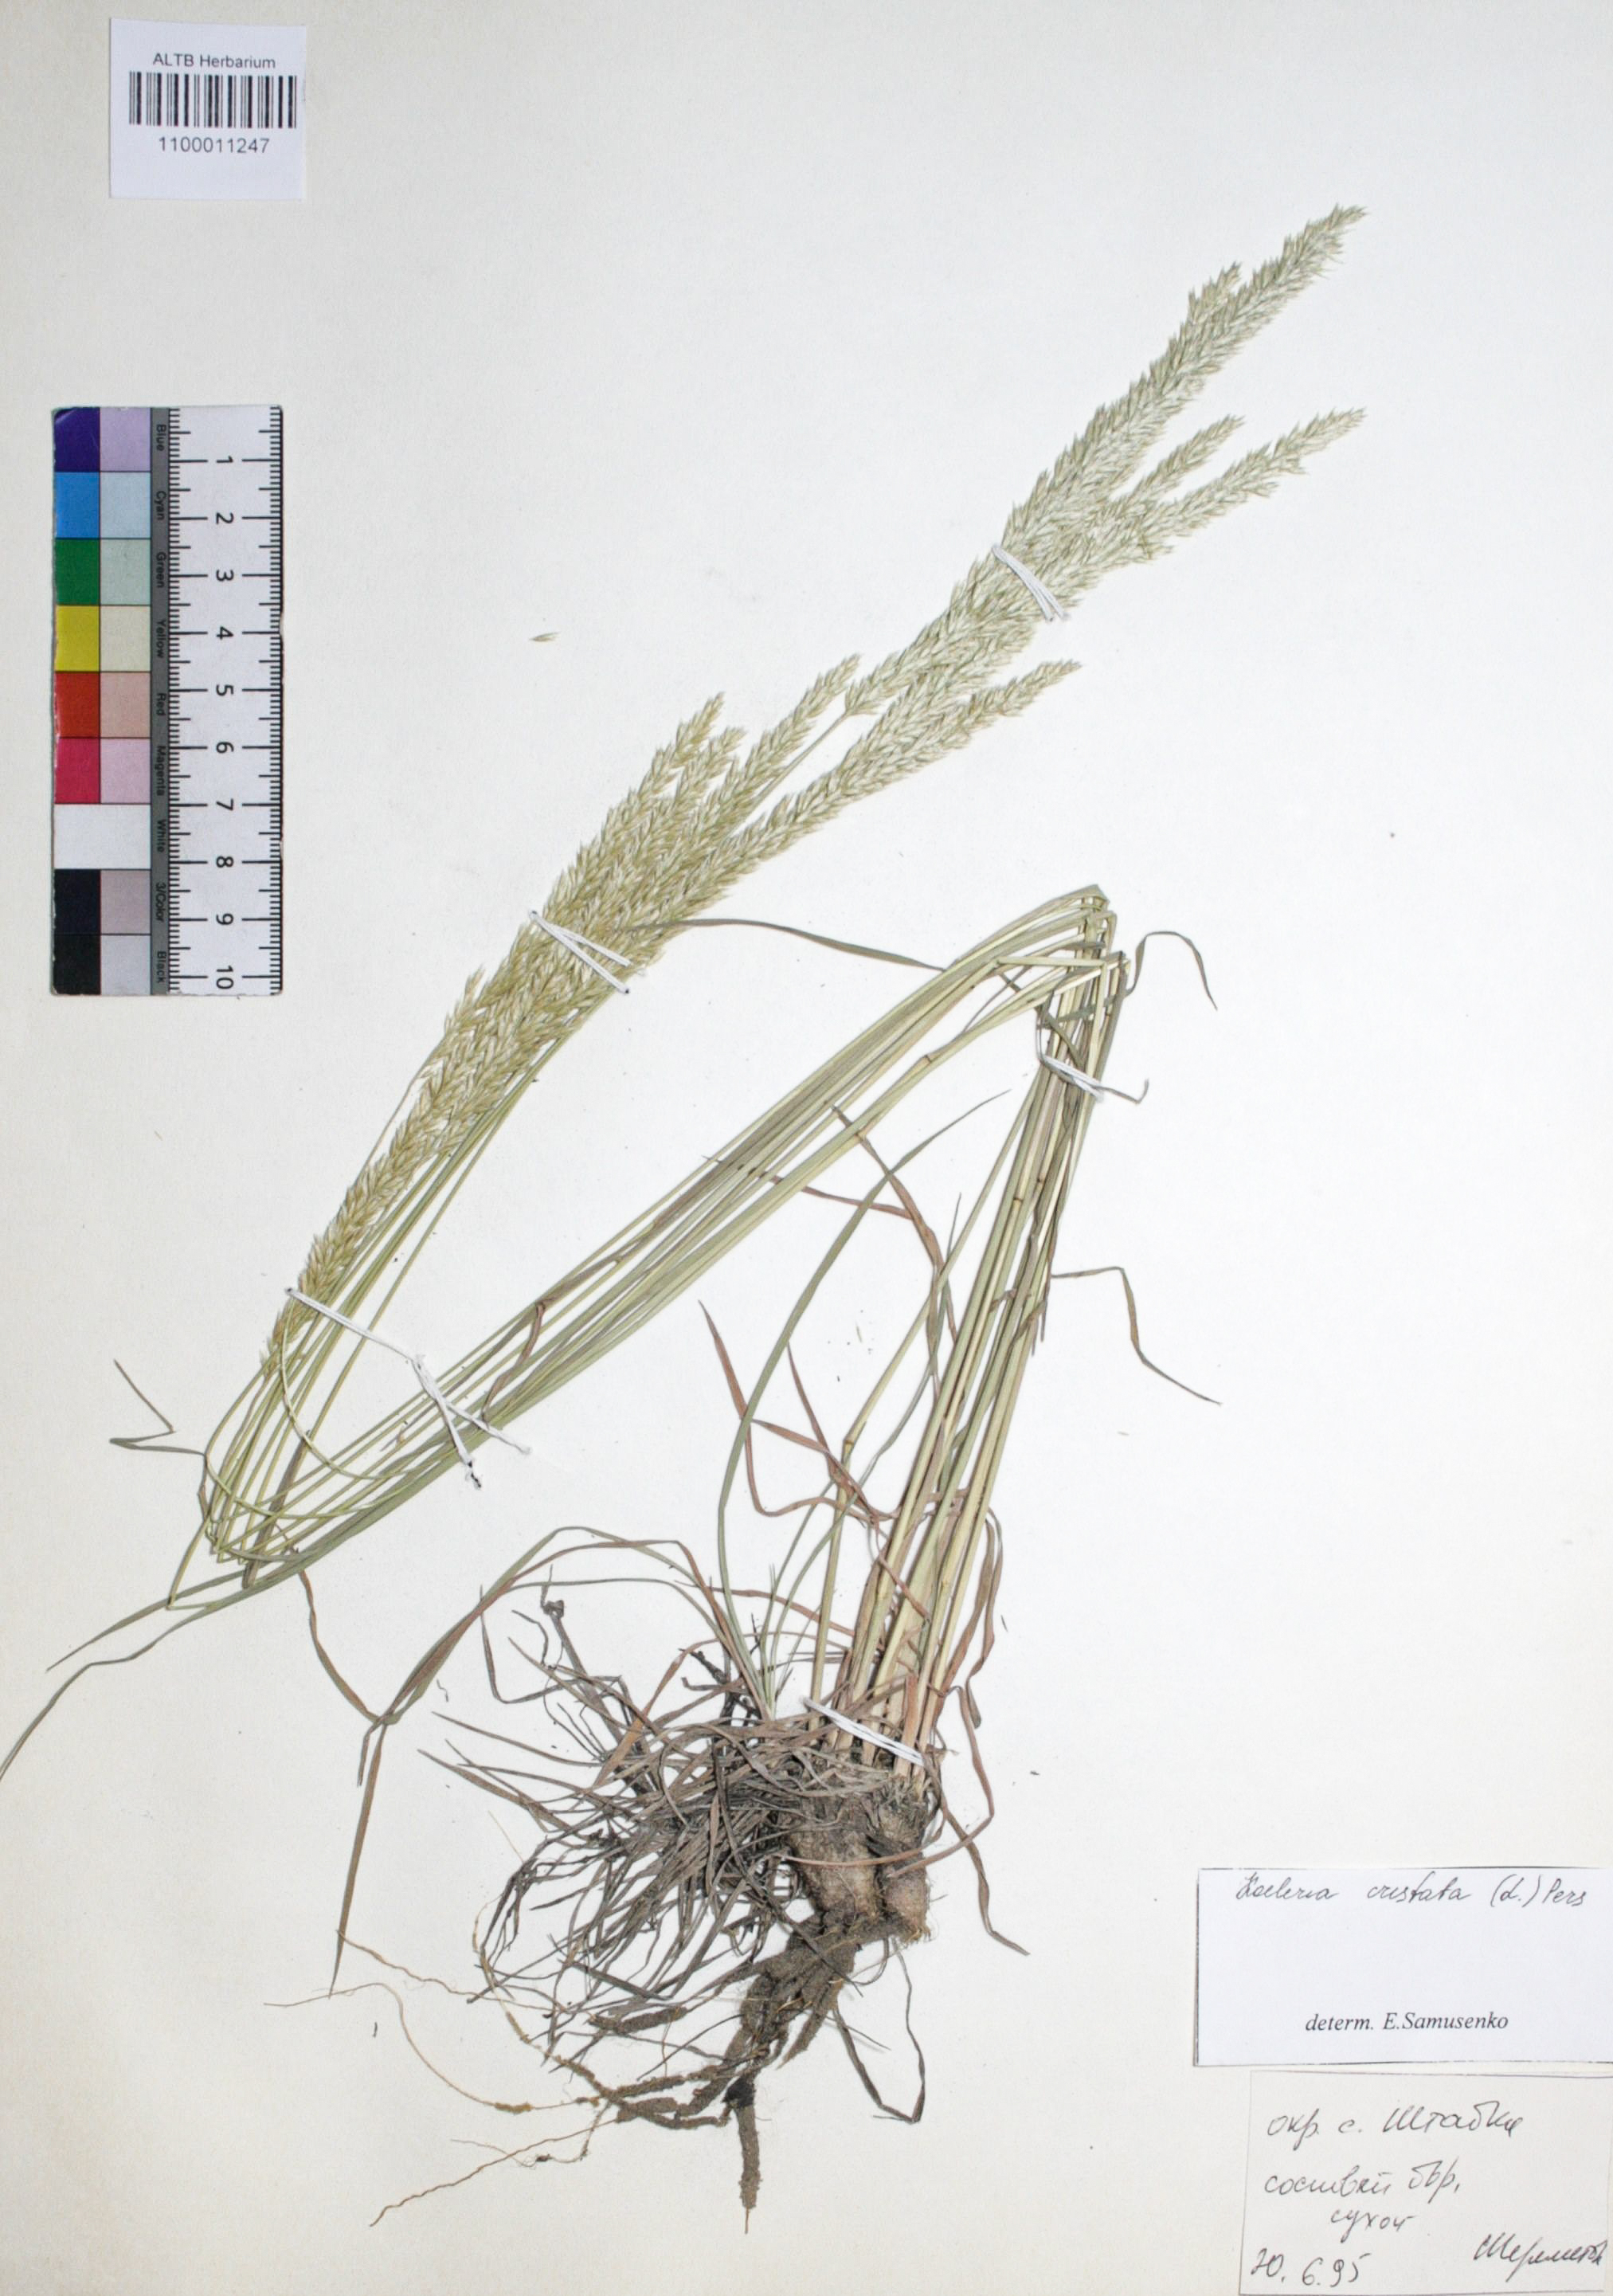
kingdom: Plantae
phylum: Tracheophyta
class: Liliopsida
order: Poales
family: Poaceae
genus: Koeleria
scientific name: Koeleria glauca
